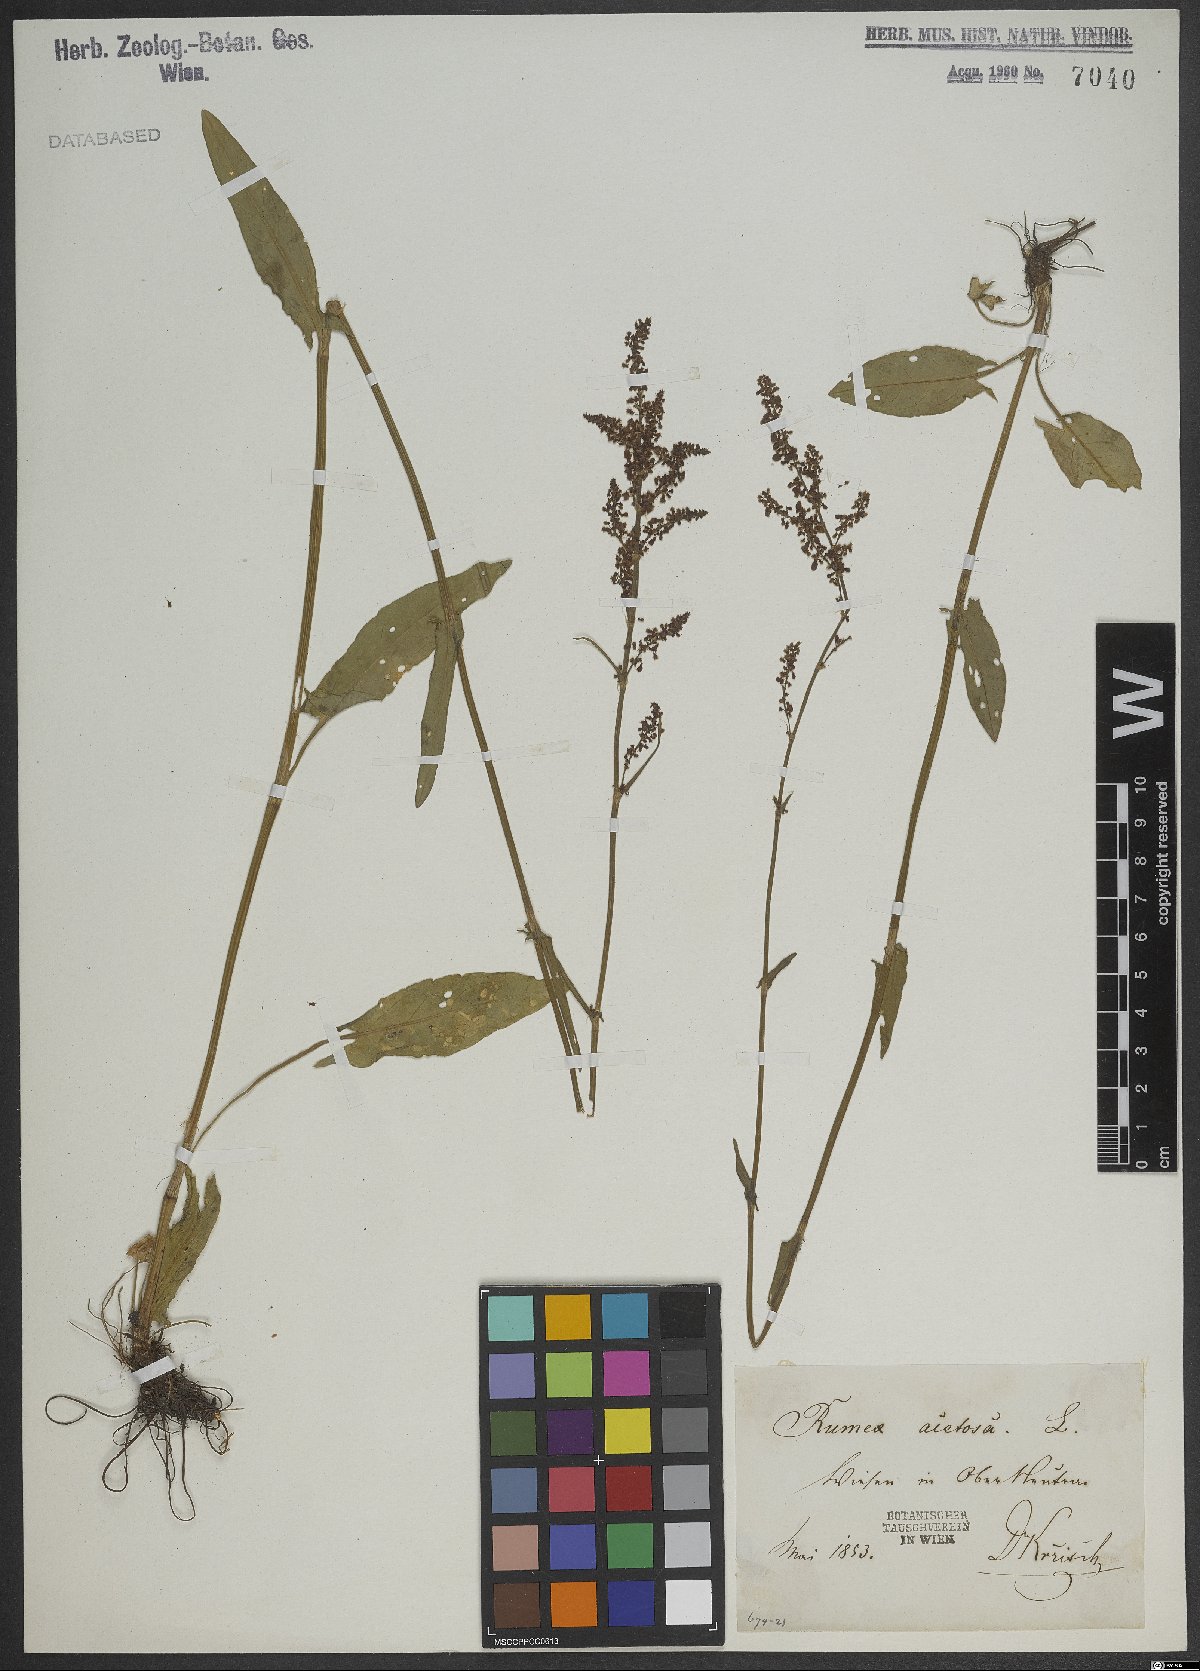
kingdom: Plantae
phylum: Tracheophyta
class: Magnoliopsida
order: Caryophyllales
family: Polygonaceae
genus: Rumex
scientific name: Rumex acetosa
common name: Garden sorrel
